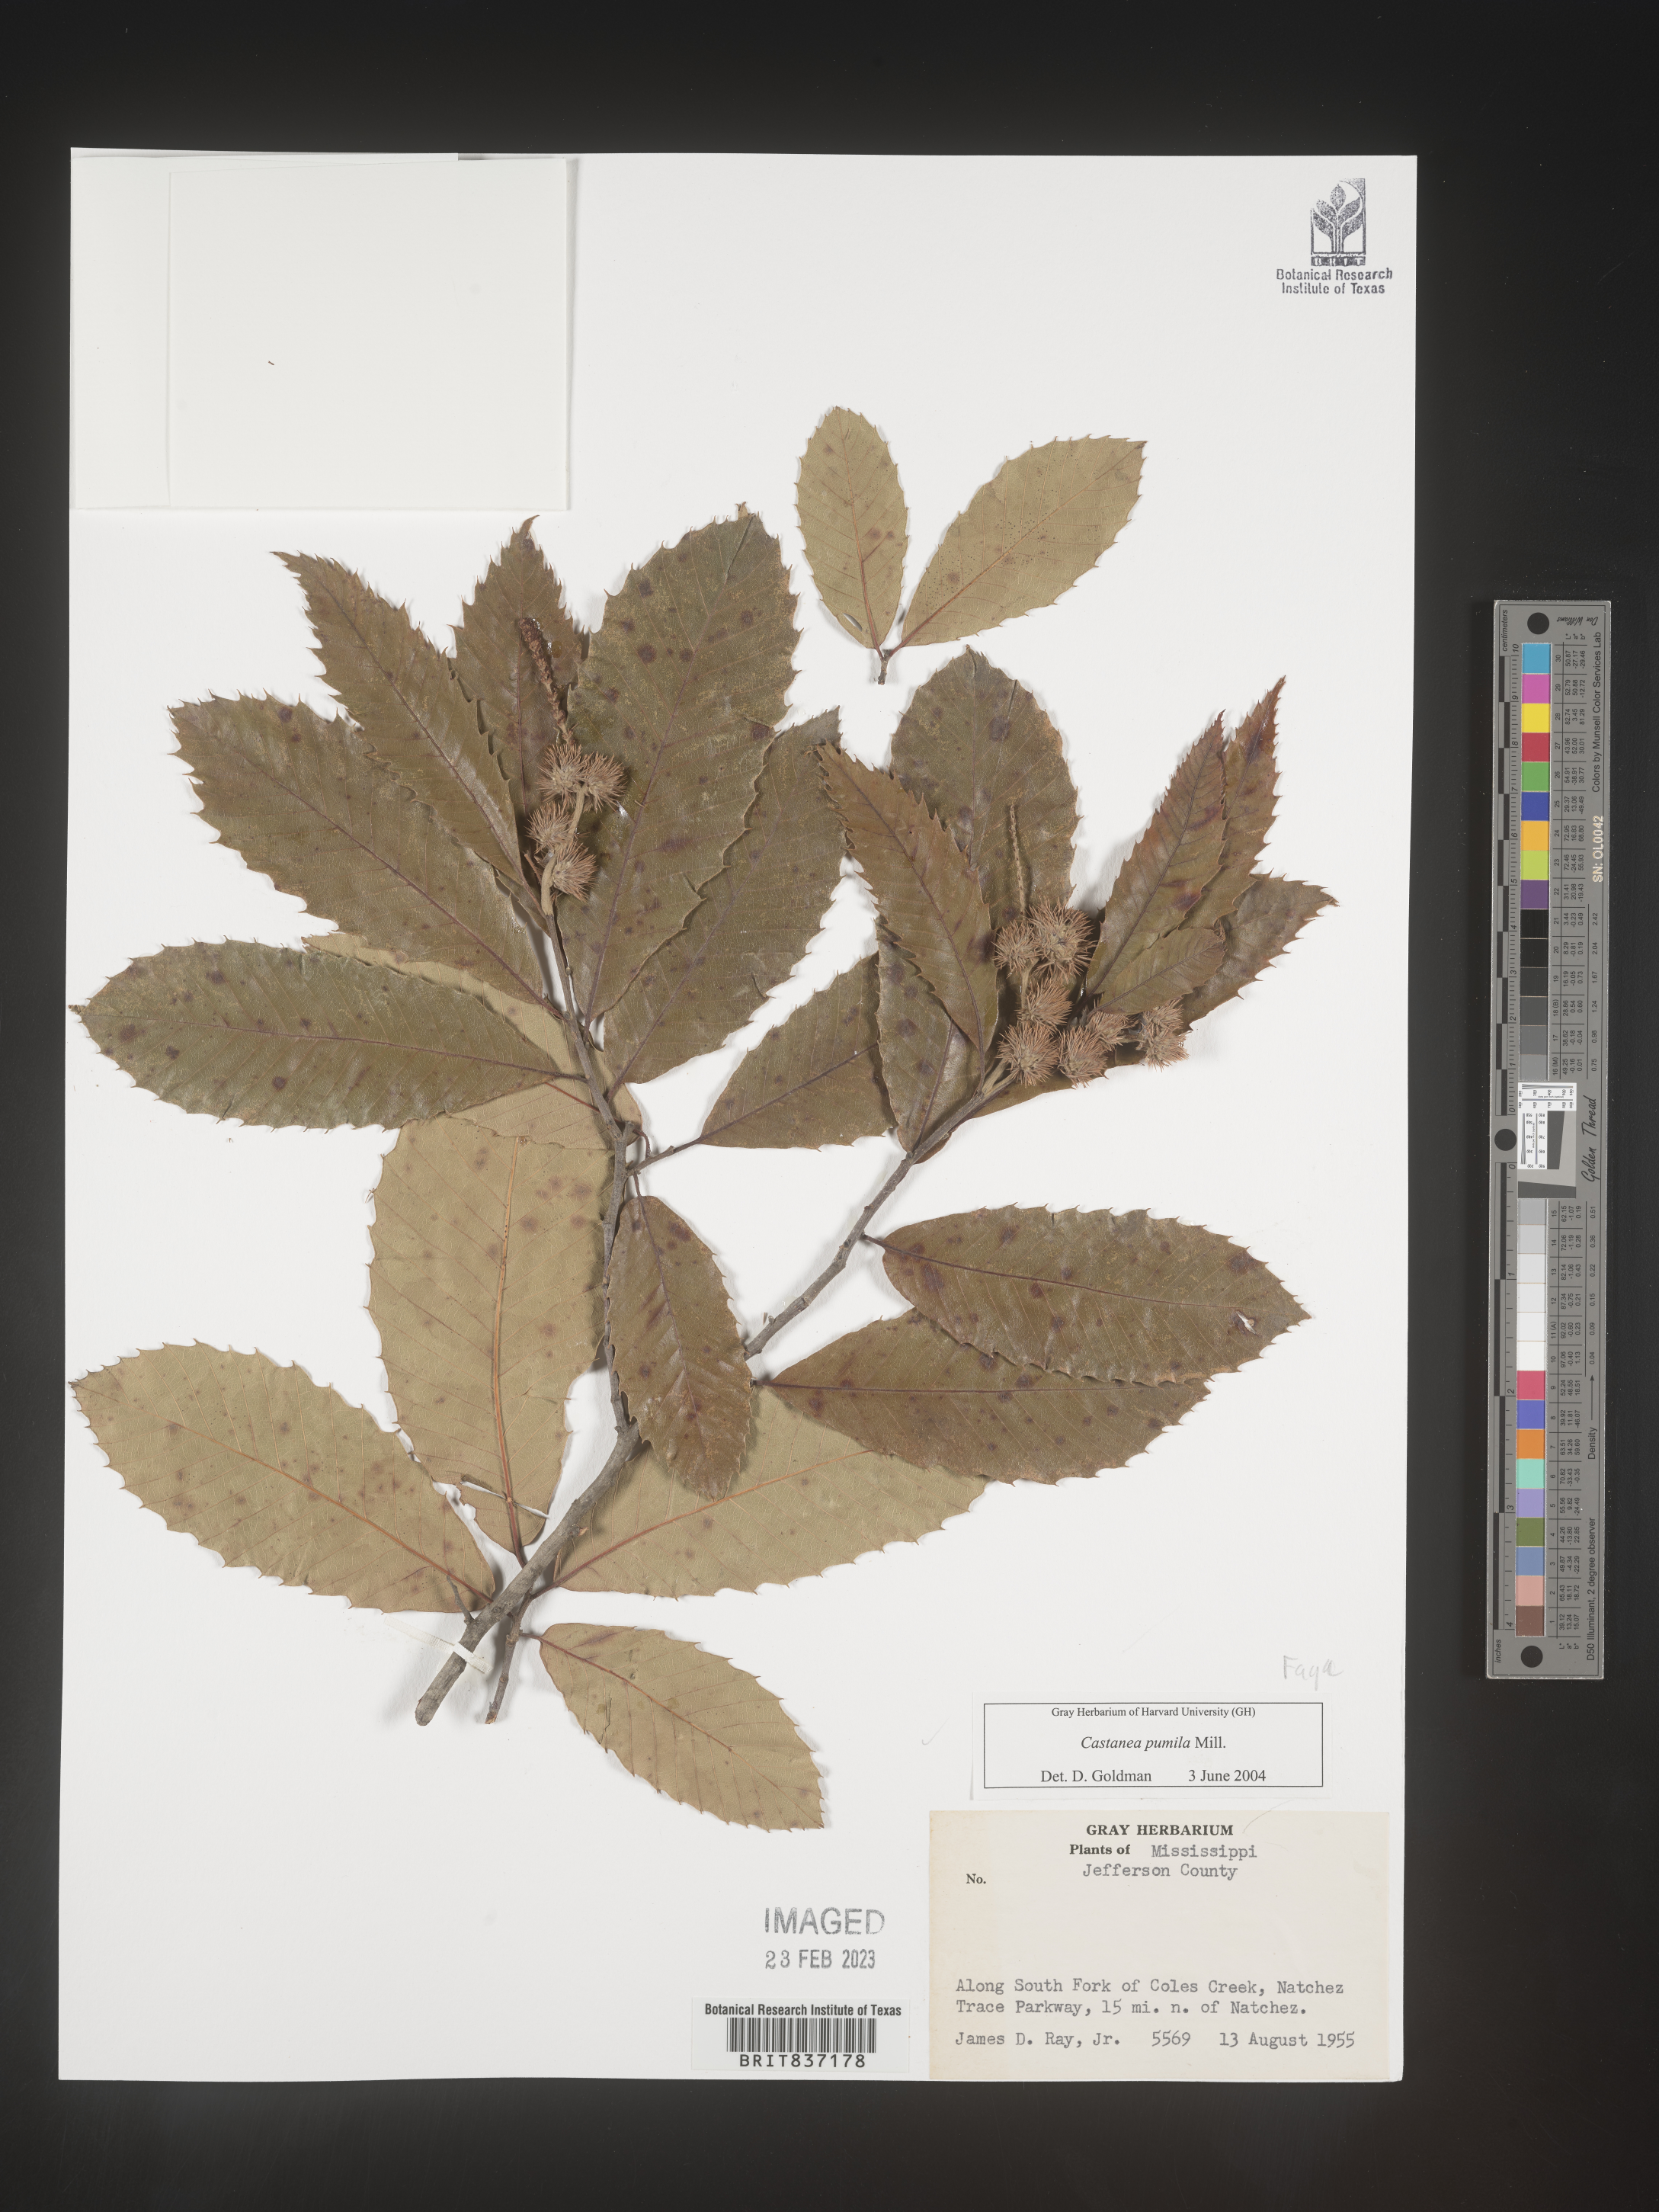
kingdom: Plantae
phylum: Tracheophyta
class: Magnoliopsida
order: Fagales
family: Fagaceae
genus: Castanea
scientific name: Castanea pumila
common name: Chinkapin
